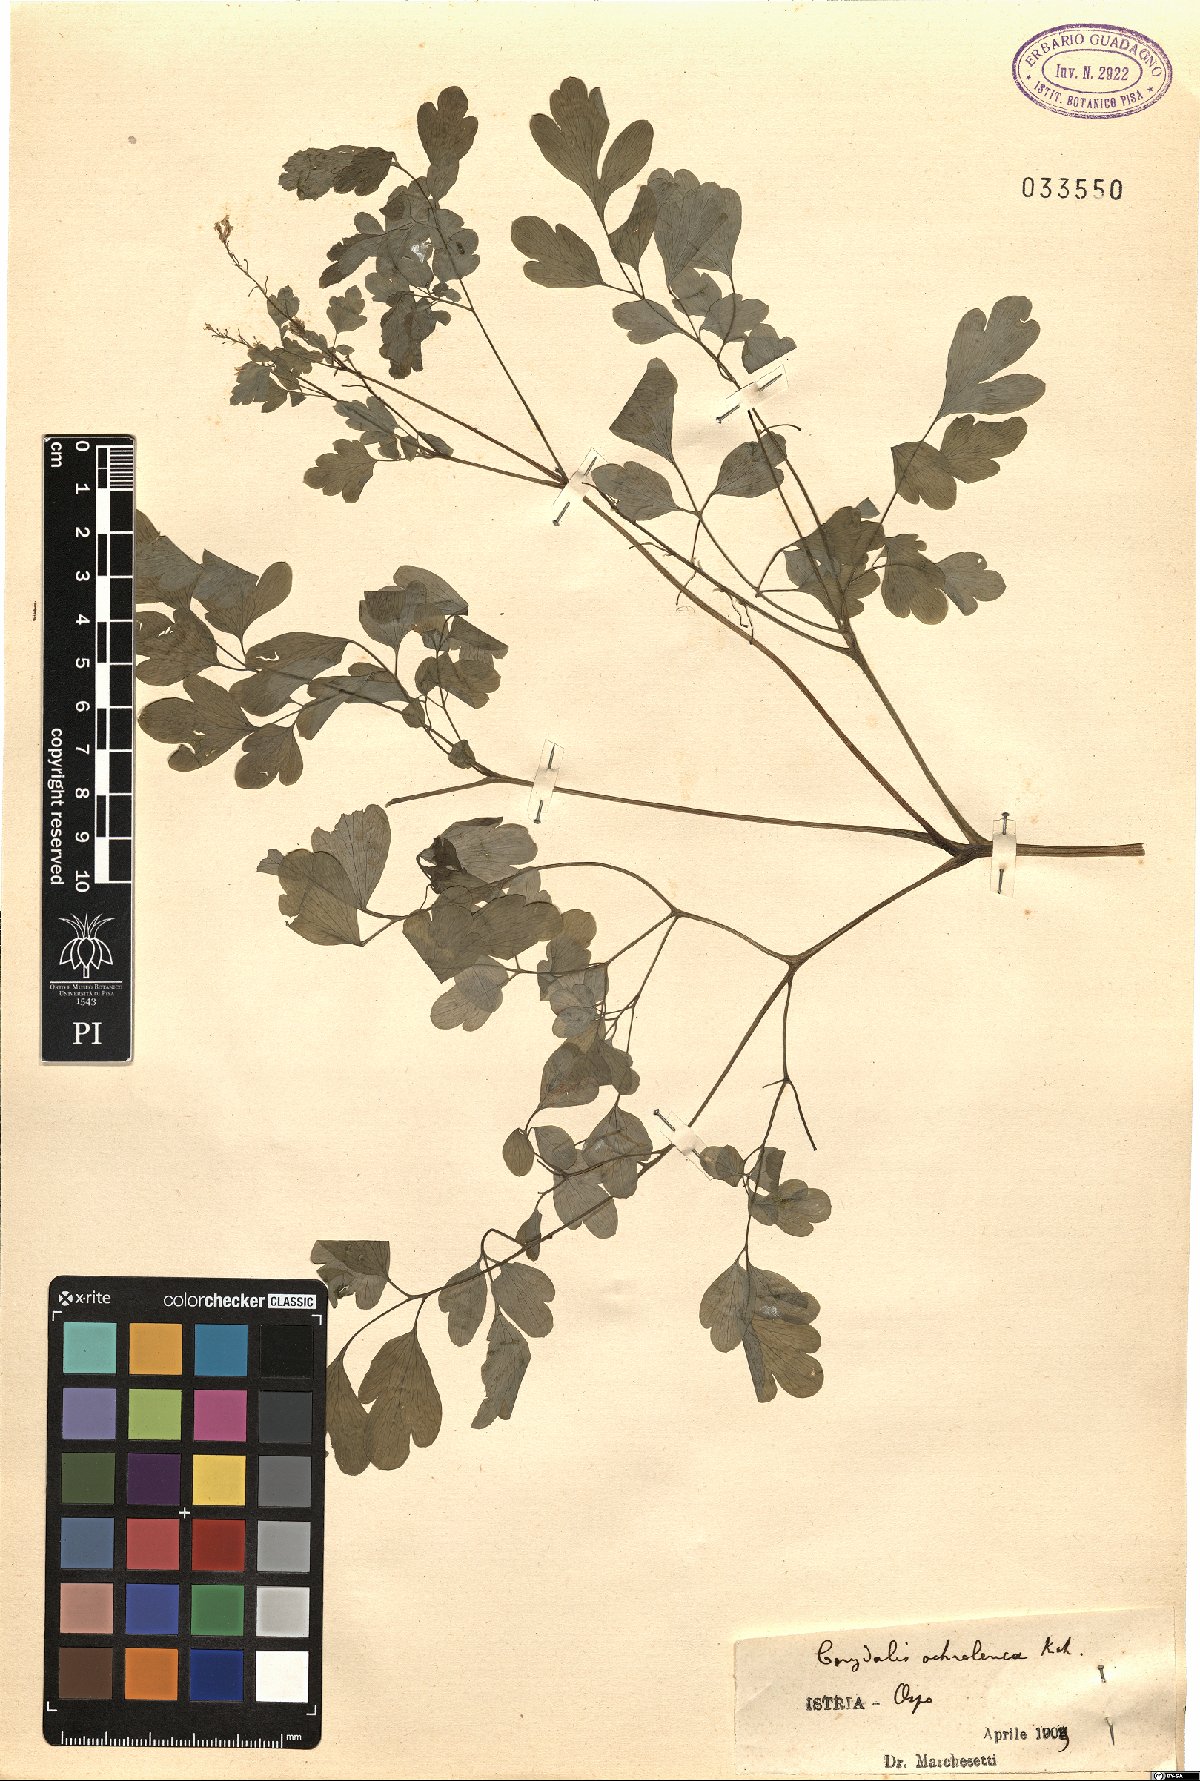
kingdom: Plantae
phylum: Tracheophyta
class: Magnoliopsida
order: Ranunculales
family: Papaveraceae
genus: Pseudofumaria
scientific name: Pseudofumaria alba
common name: Pale corydalis
